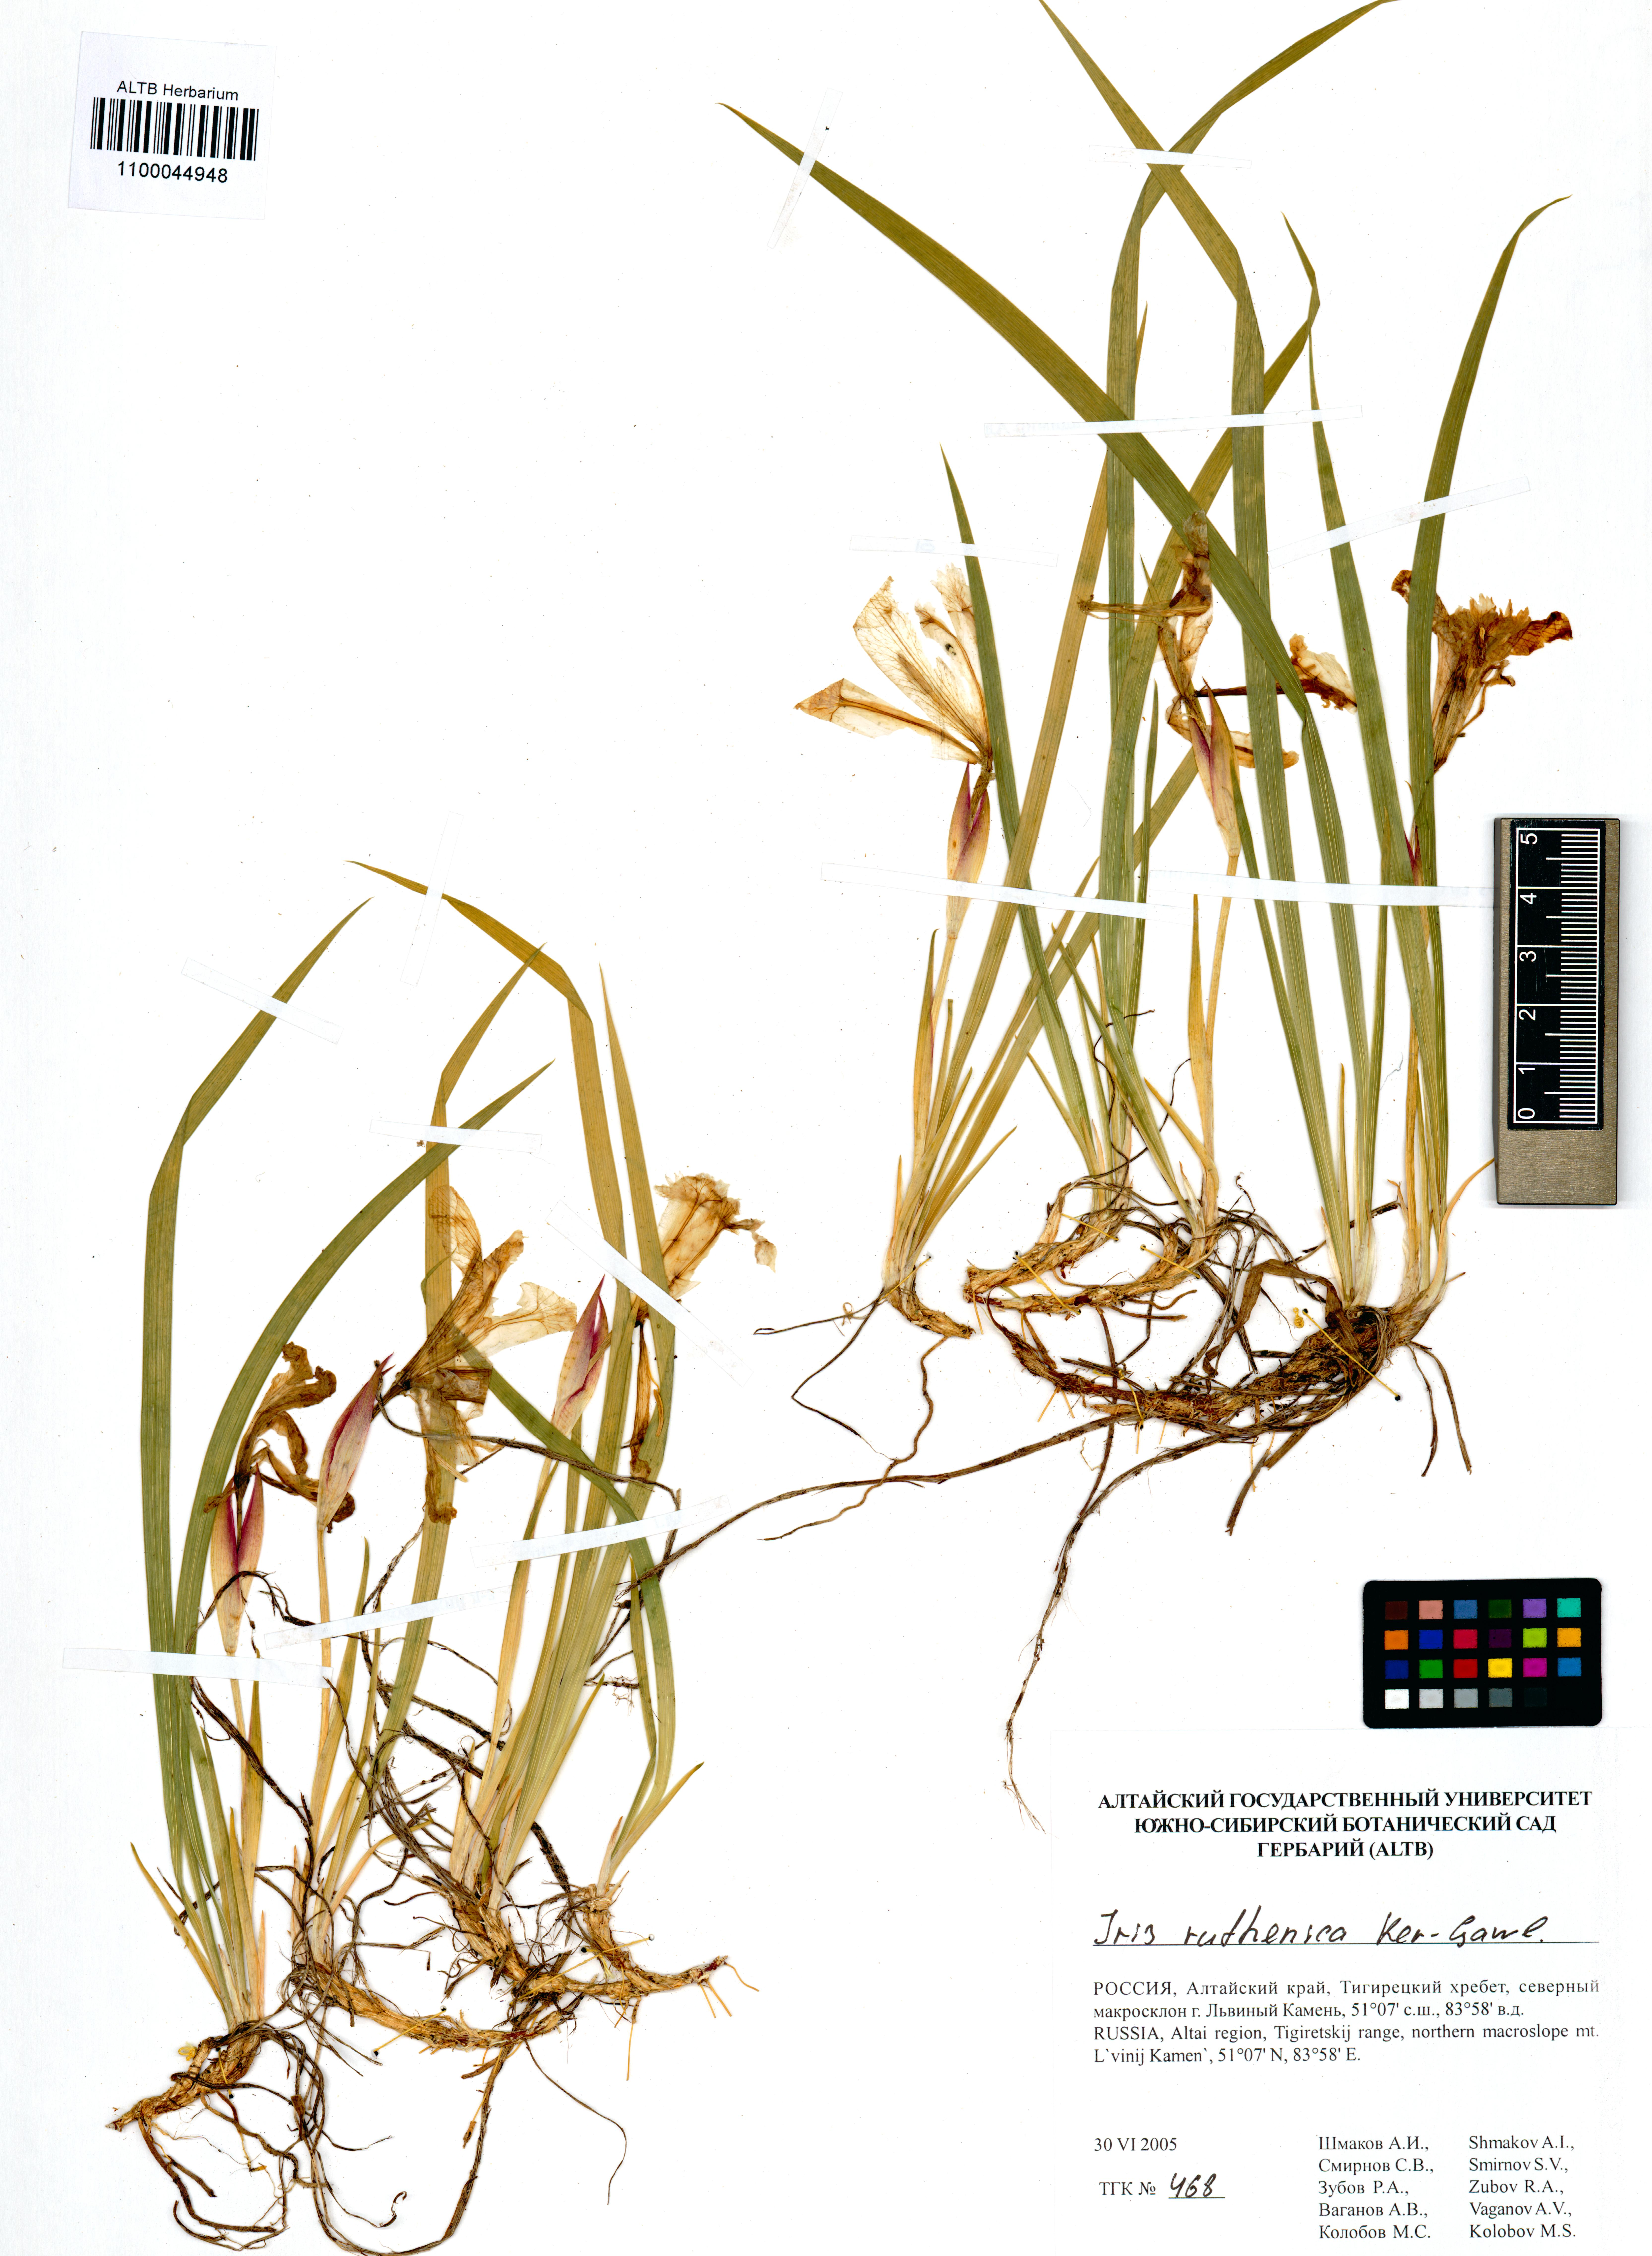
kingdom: Plantae
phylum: Tracheophyta
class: Liliopsida
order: Asparagales
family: Iridaceae
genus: Iris
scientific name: Iris ruthenica
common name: Purple-bract iris
